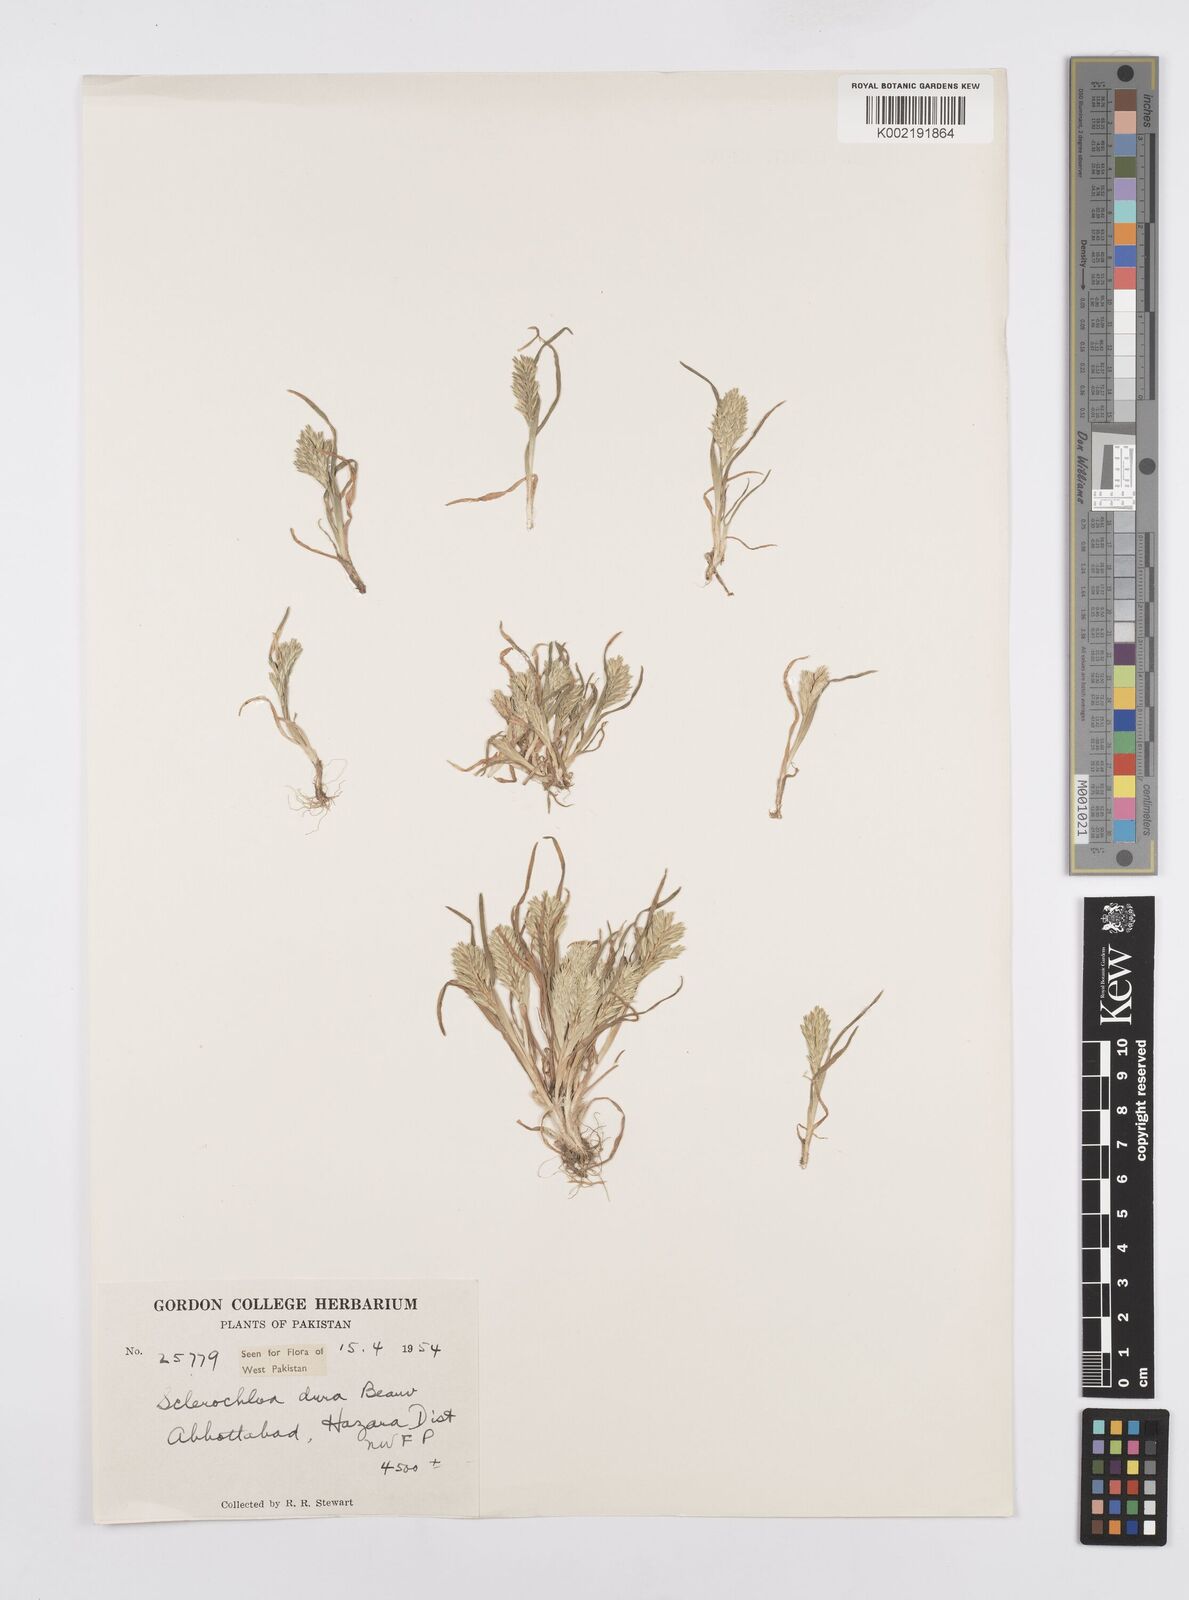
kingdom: Plantae
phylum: Tracheophyta
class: Liliopsida
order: Poales
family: Poaceae
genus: Sclerochloa
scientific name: Sclerochloa dura
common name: Common hardgrass
